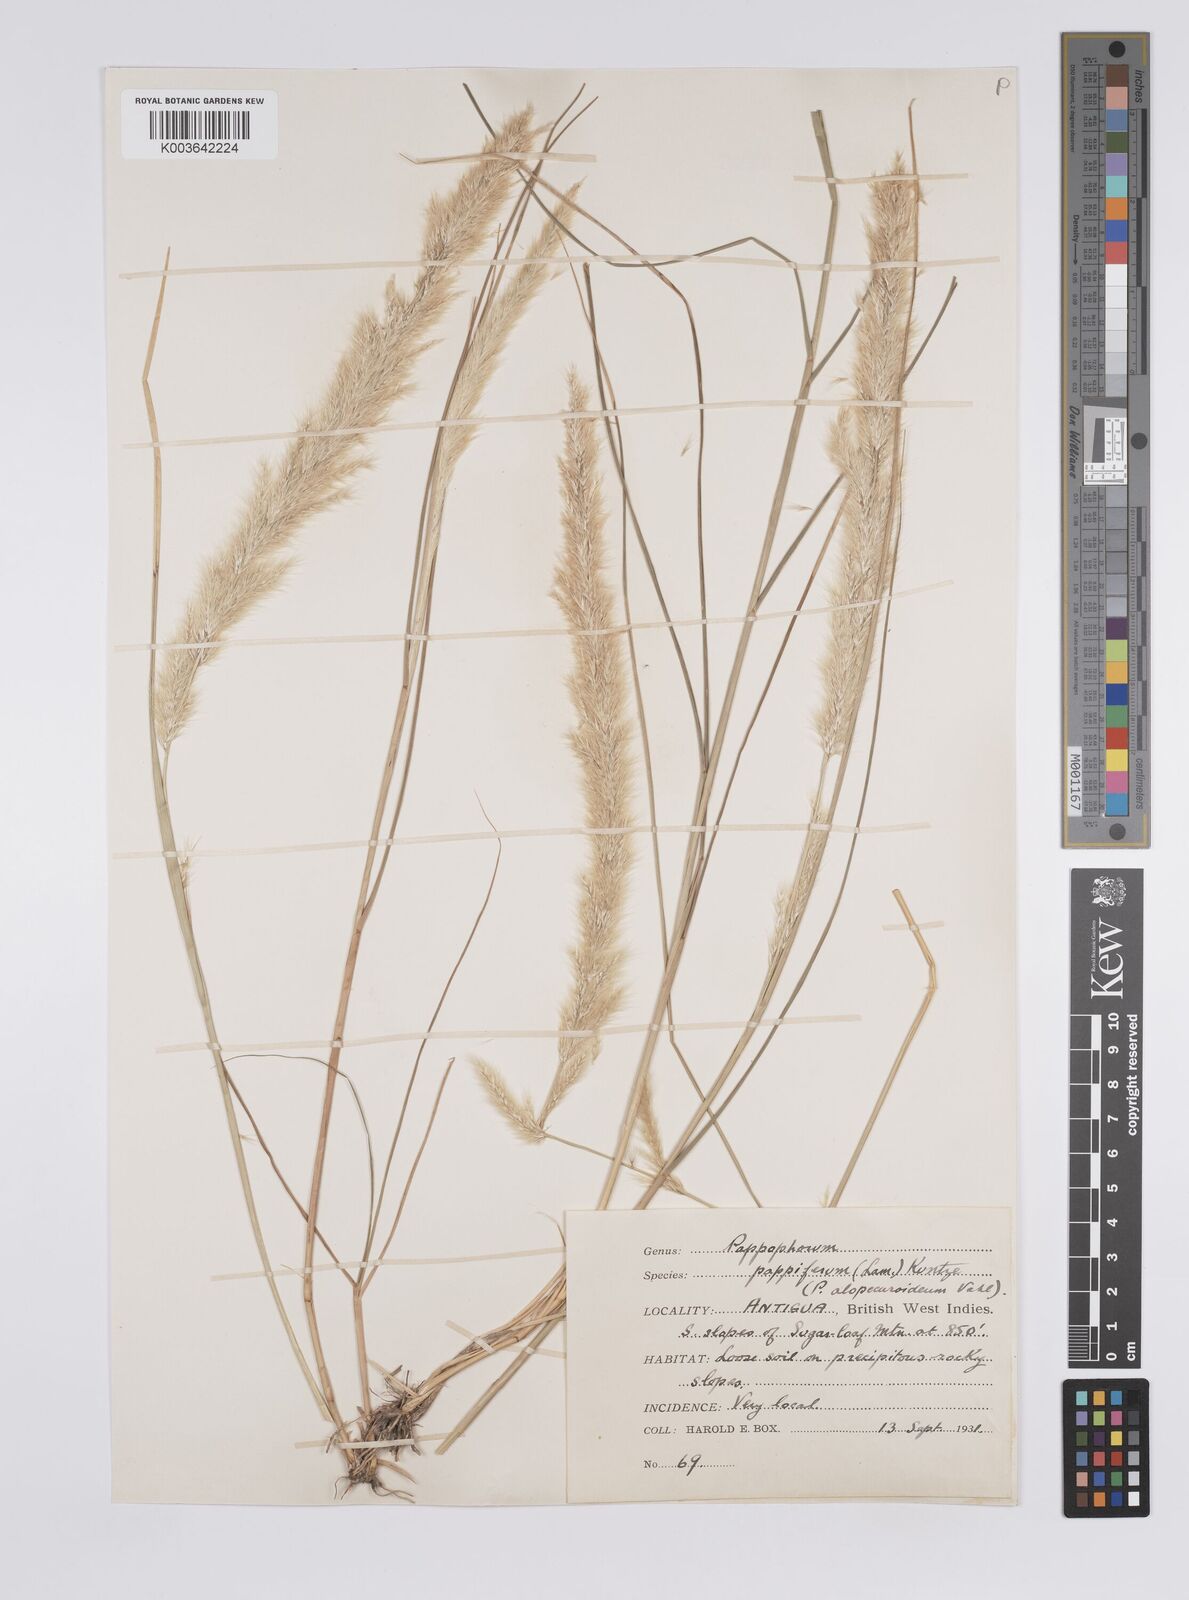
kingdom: Plantae
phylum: Tracheophyta
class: Liliopsida
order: Poales
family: Poaceae
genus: Pappophorum
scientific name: Pappophorum pappiferum
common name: Crabgrass
